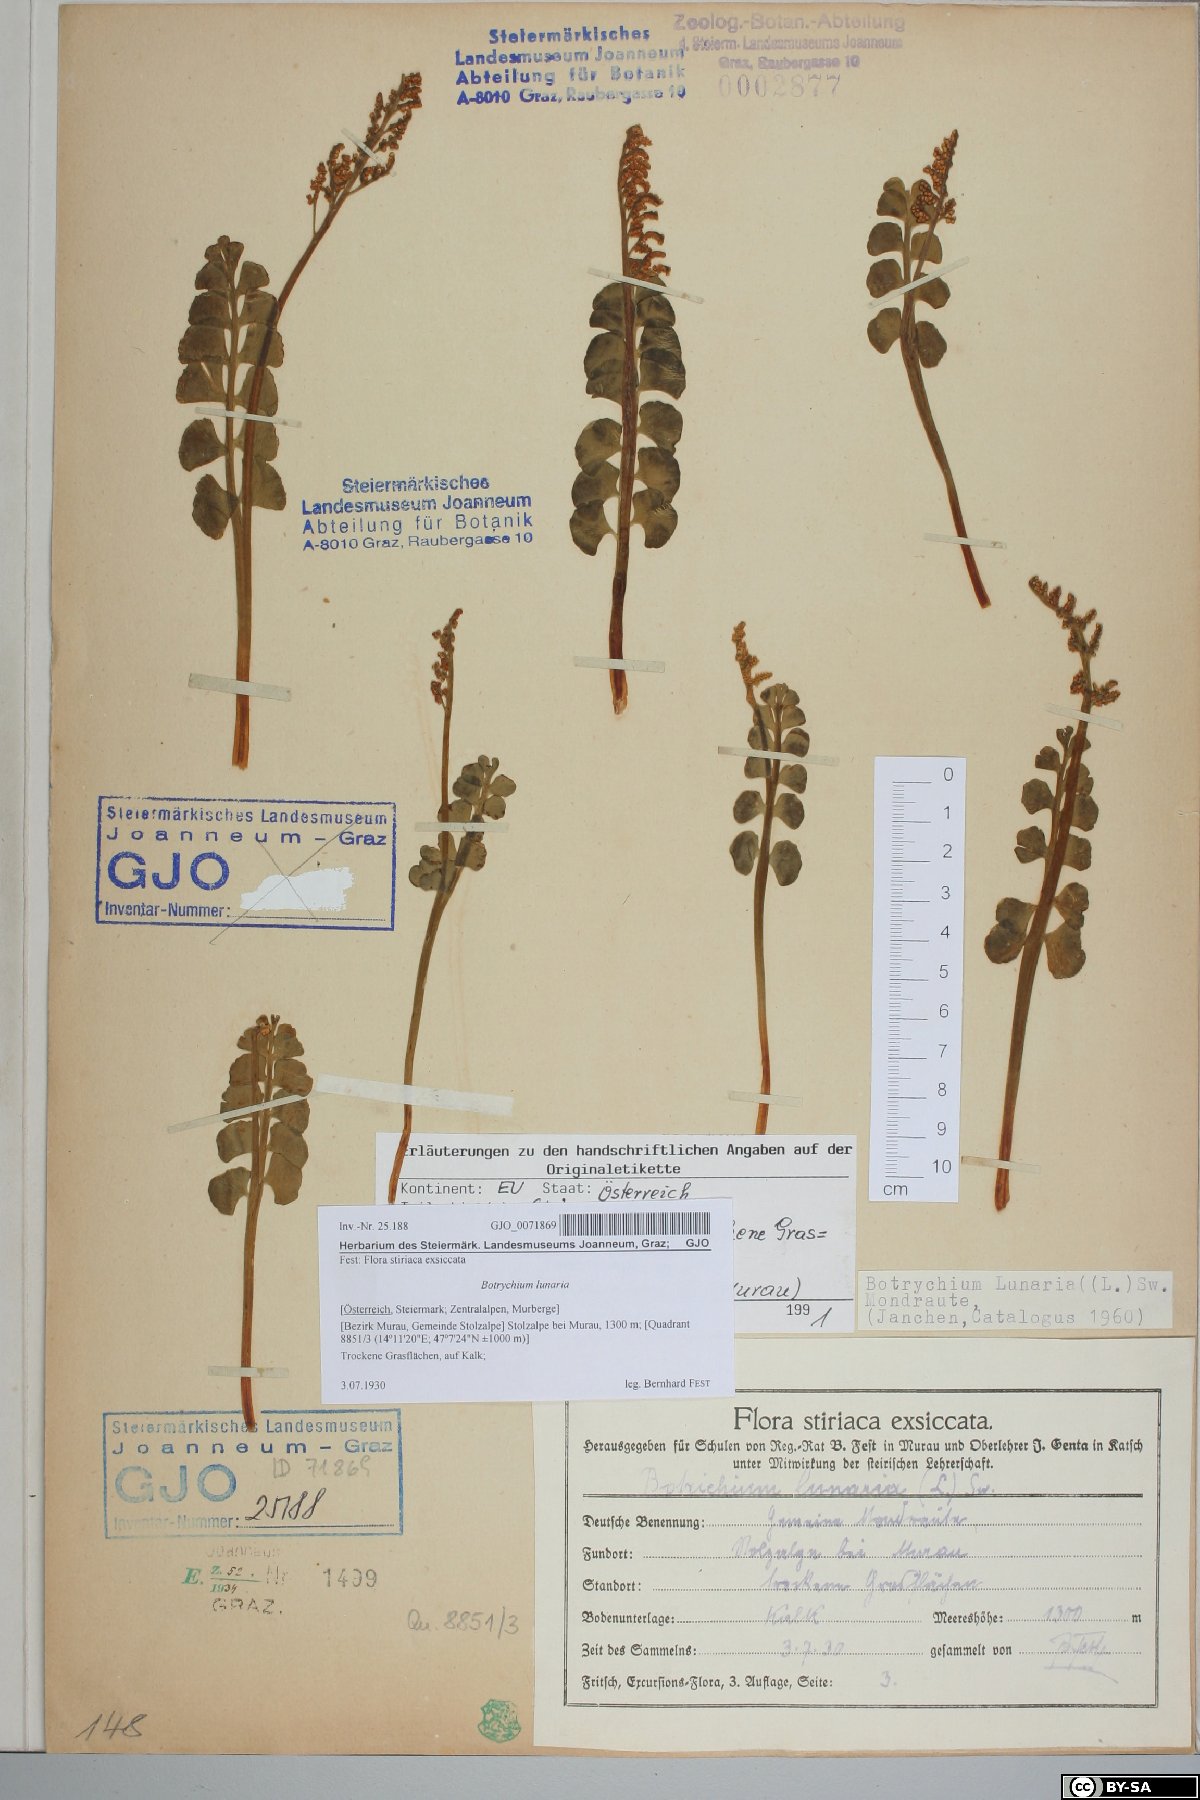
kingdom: Plantae
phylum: Tracheophyta
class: Polypodiopsida
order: Ophioglossales
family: Ophioglossaceae
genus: Botrychium
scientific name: Botrychium lunaria
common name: Moonwort
